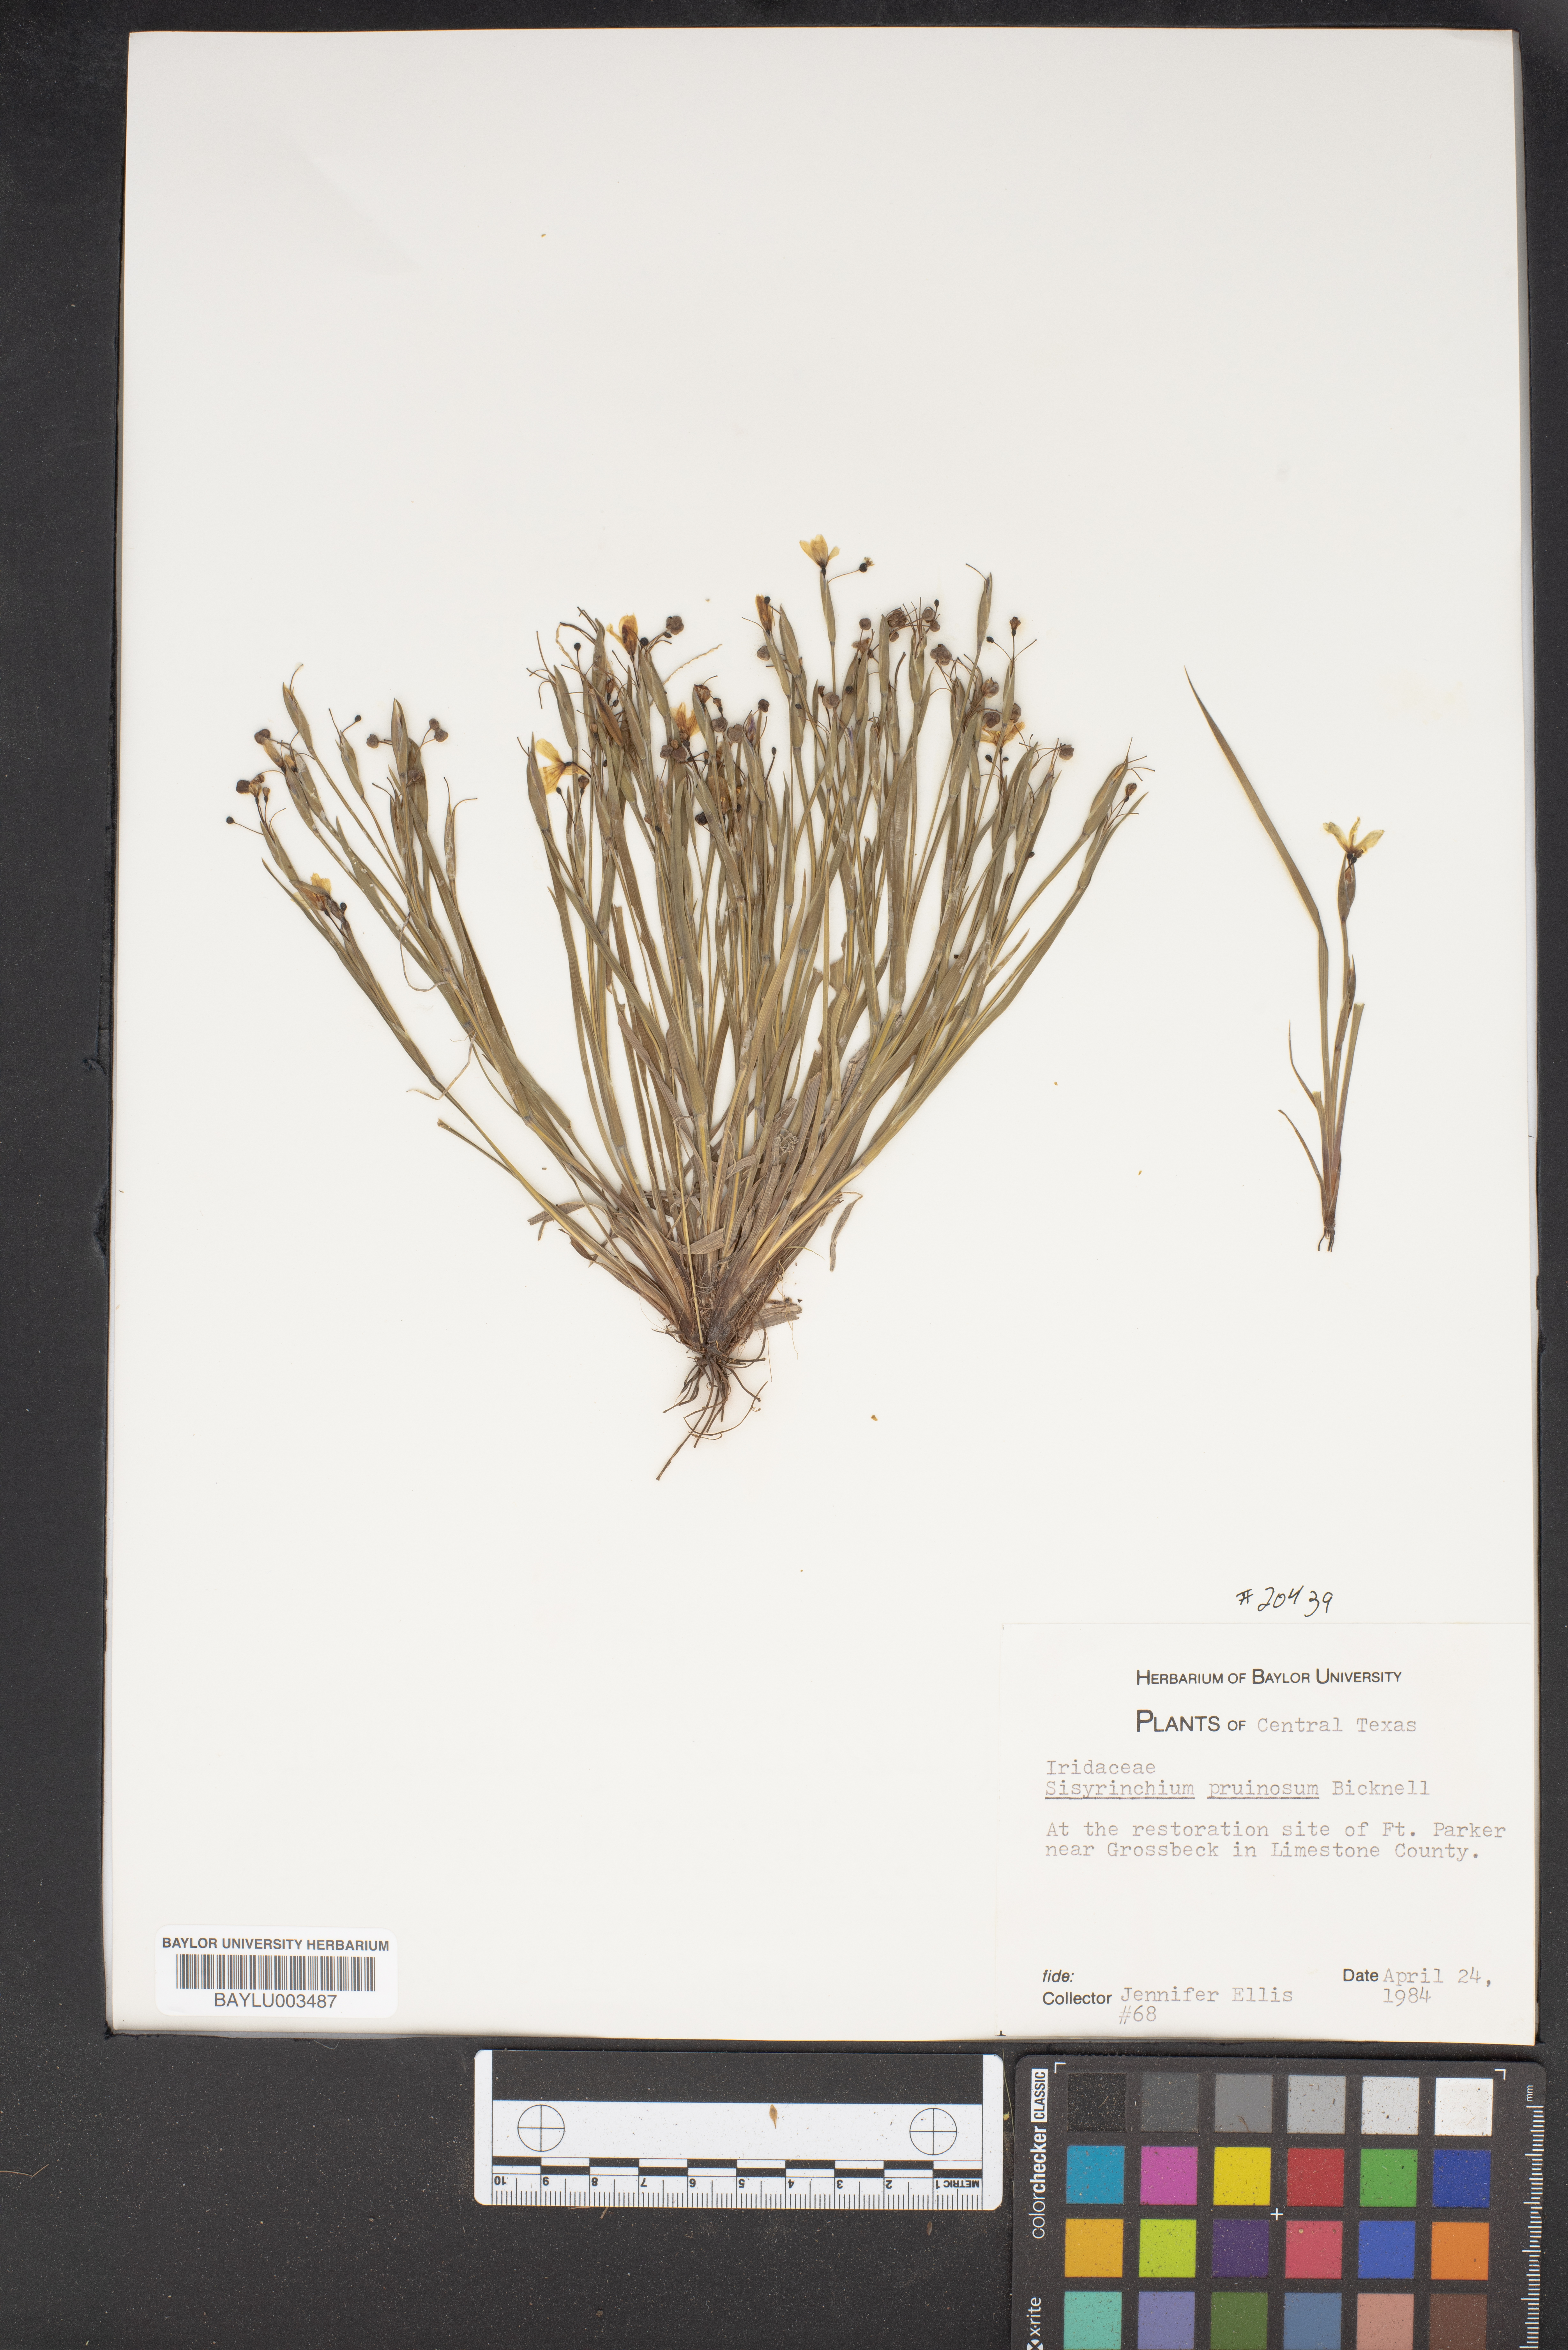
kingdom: Plantae
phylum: Tracheophyta
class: Liliopsida
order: Asparagales
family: Iridaceae
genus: Sisyrinchium
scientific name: Sisyrinchium pruinosum
